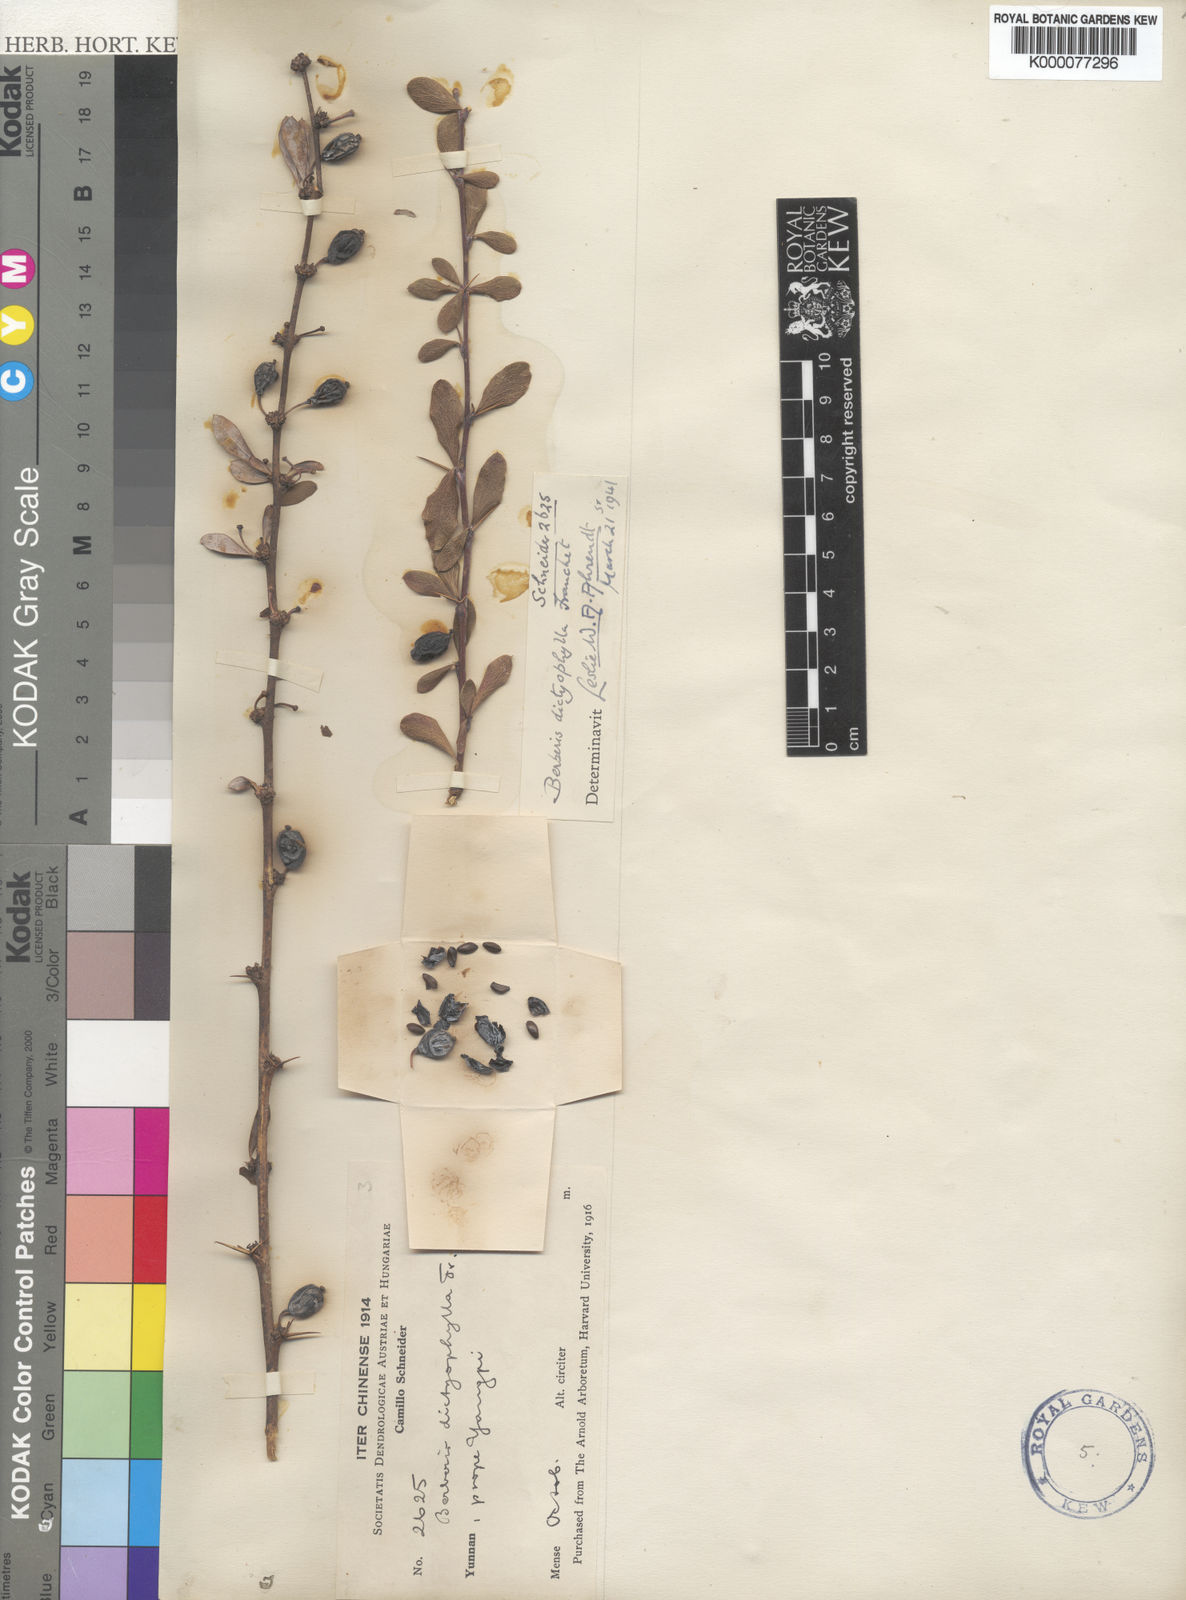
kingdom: Plantae
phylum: Tracheophyta
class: Magnoliopsida
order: Ranunculales
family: Berberidaceae
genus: Berberis
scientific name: Berberis dictyophylla
